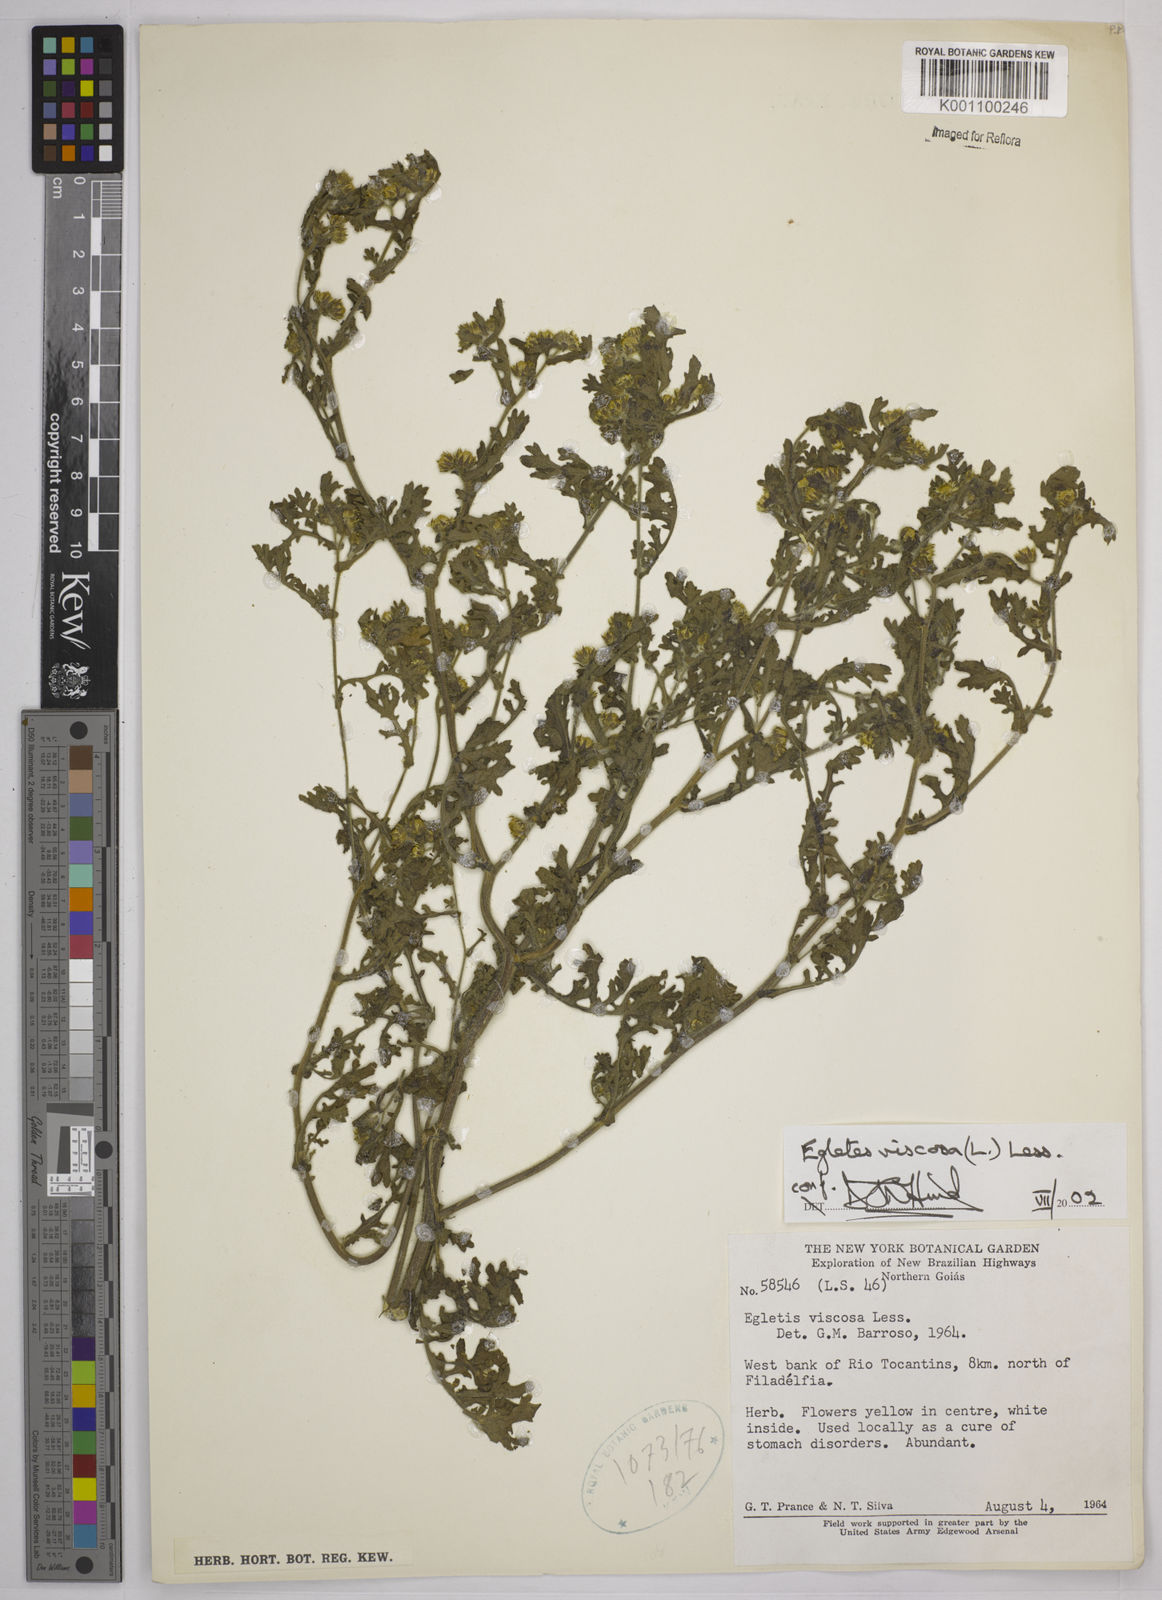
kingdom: Plantae
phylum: Tracheophyta
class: Magnoliopsida
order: Asterales
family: Asteraceae
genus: Egletes
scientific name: Egletes viscosa
